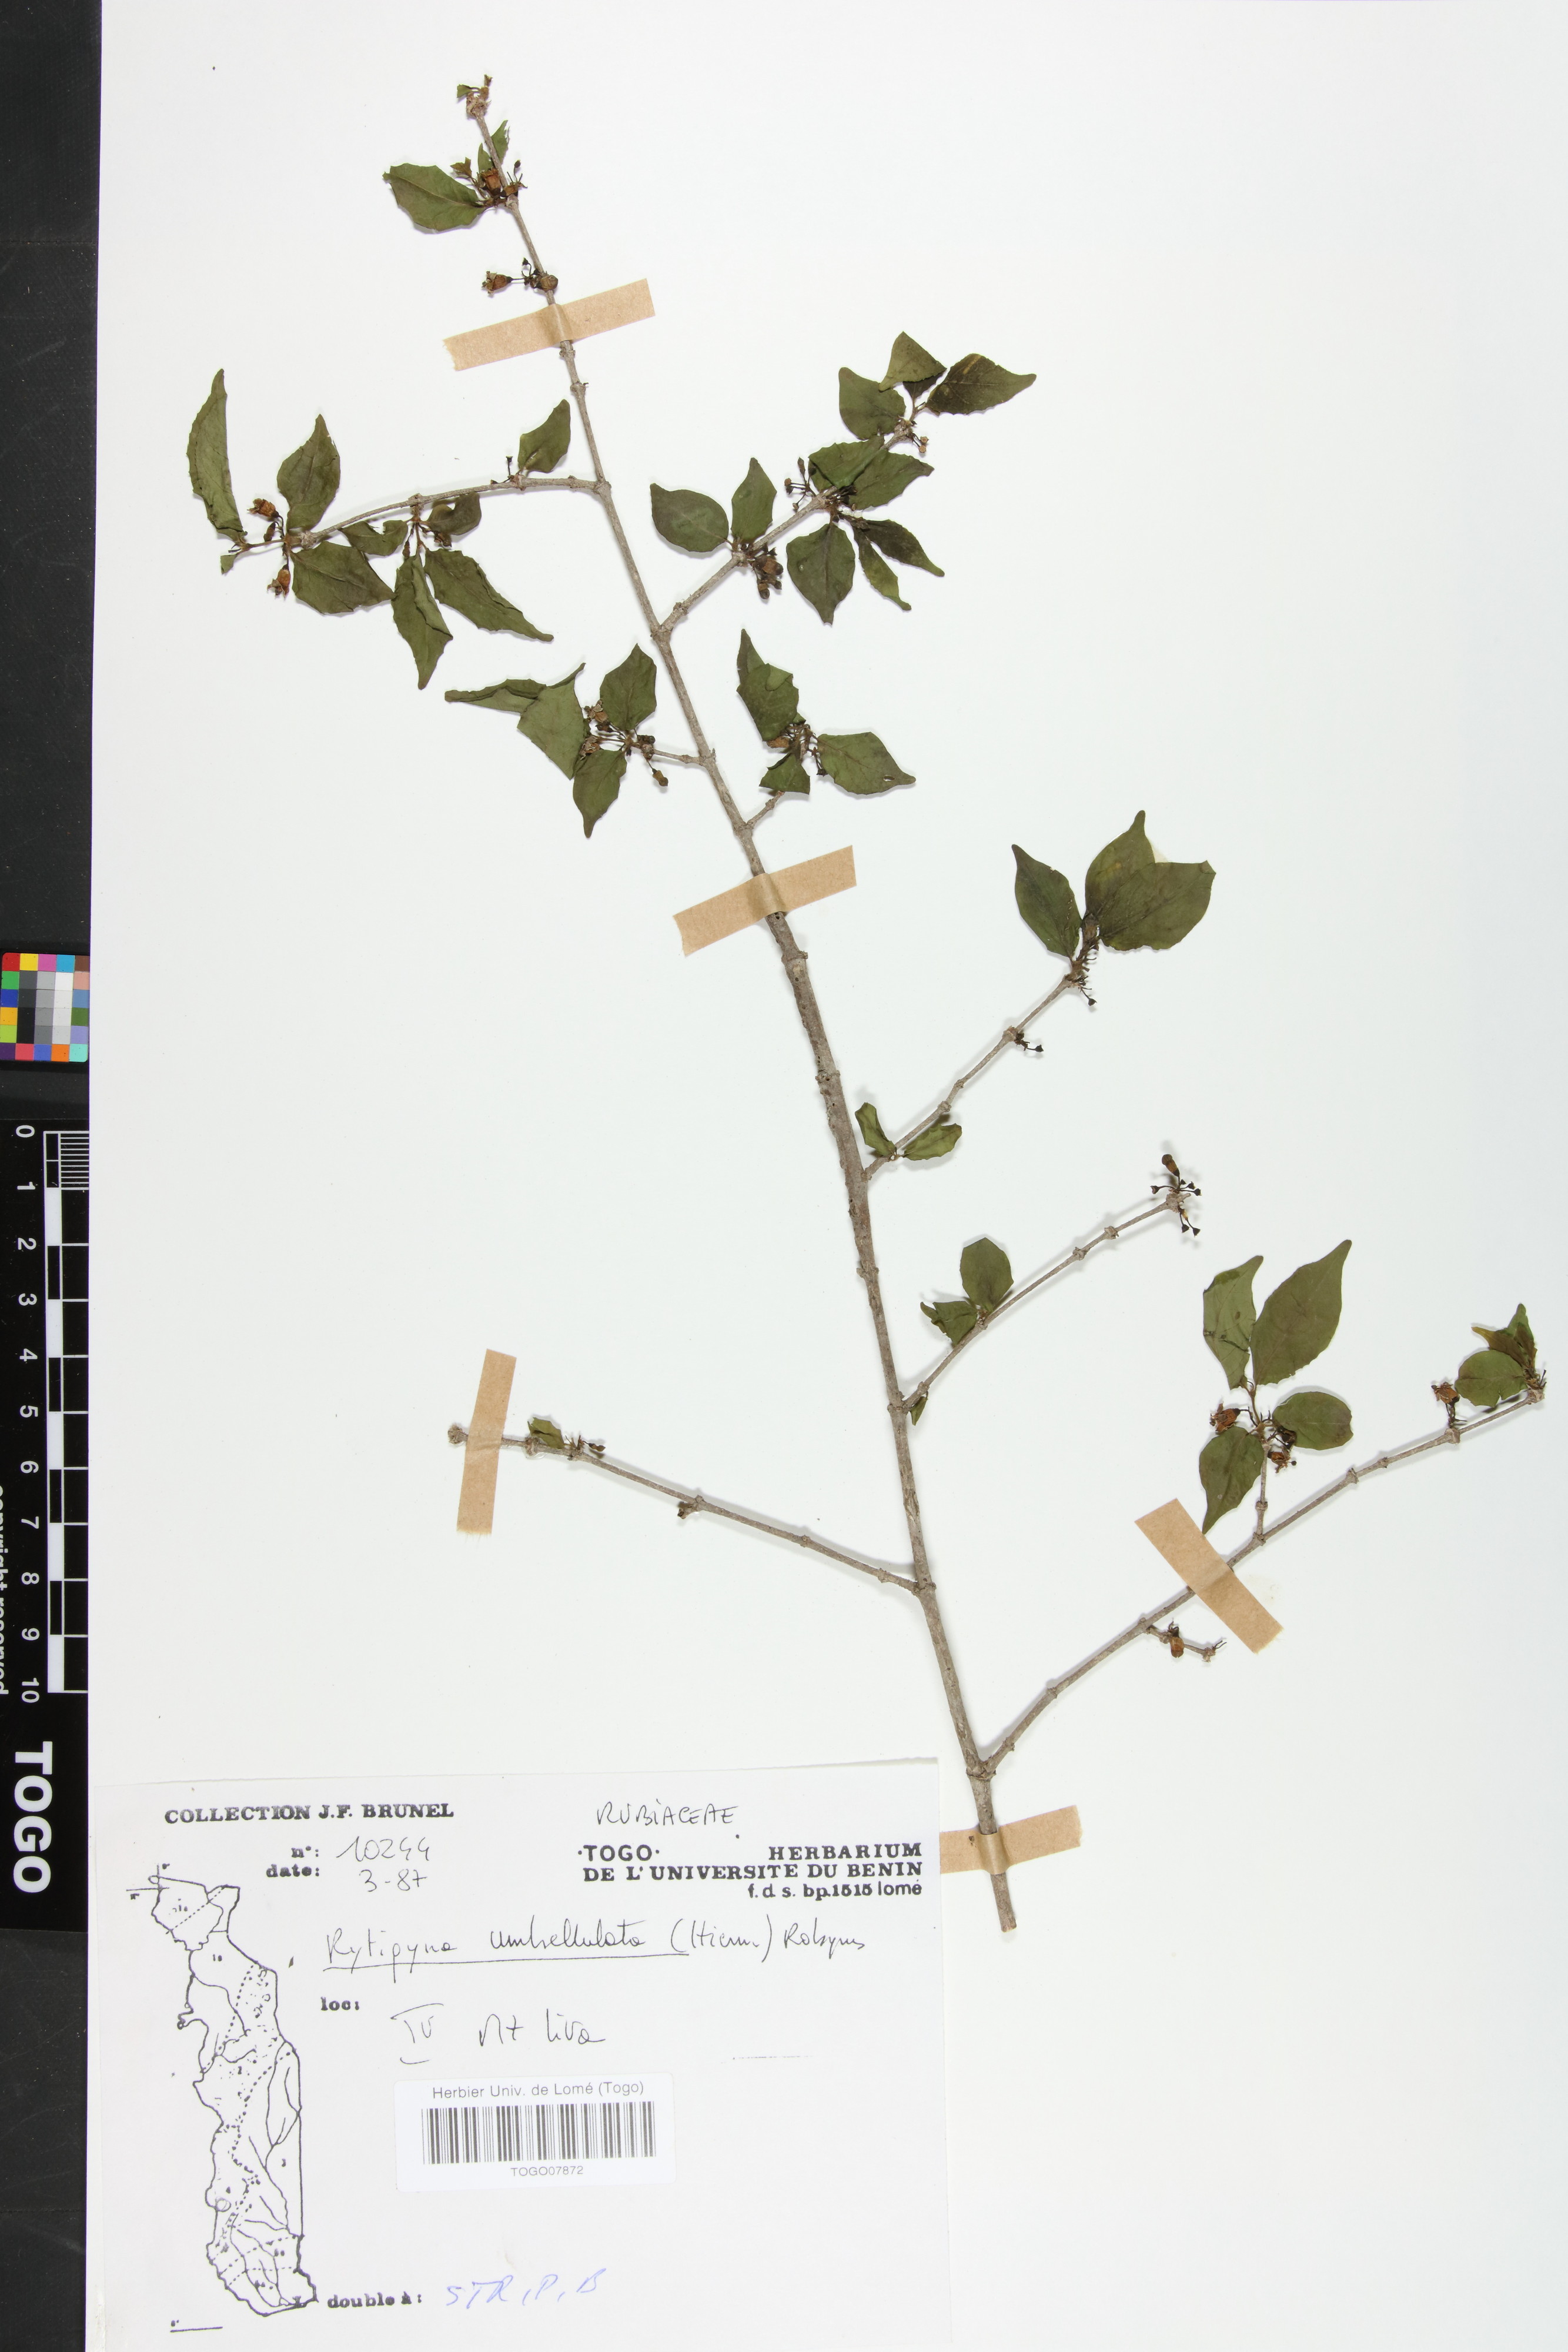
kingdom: Plantae
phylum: Tracheophyta
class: Magnoliopsida
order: Gentianales
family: Rubiaceae
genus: Rytigynia
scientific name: Rytigynia umbellulata
